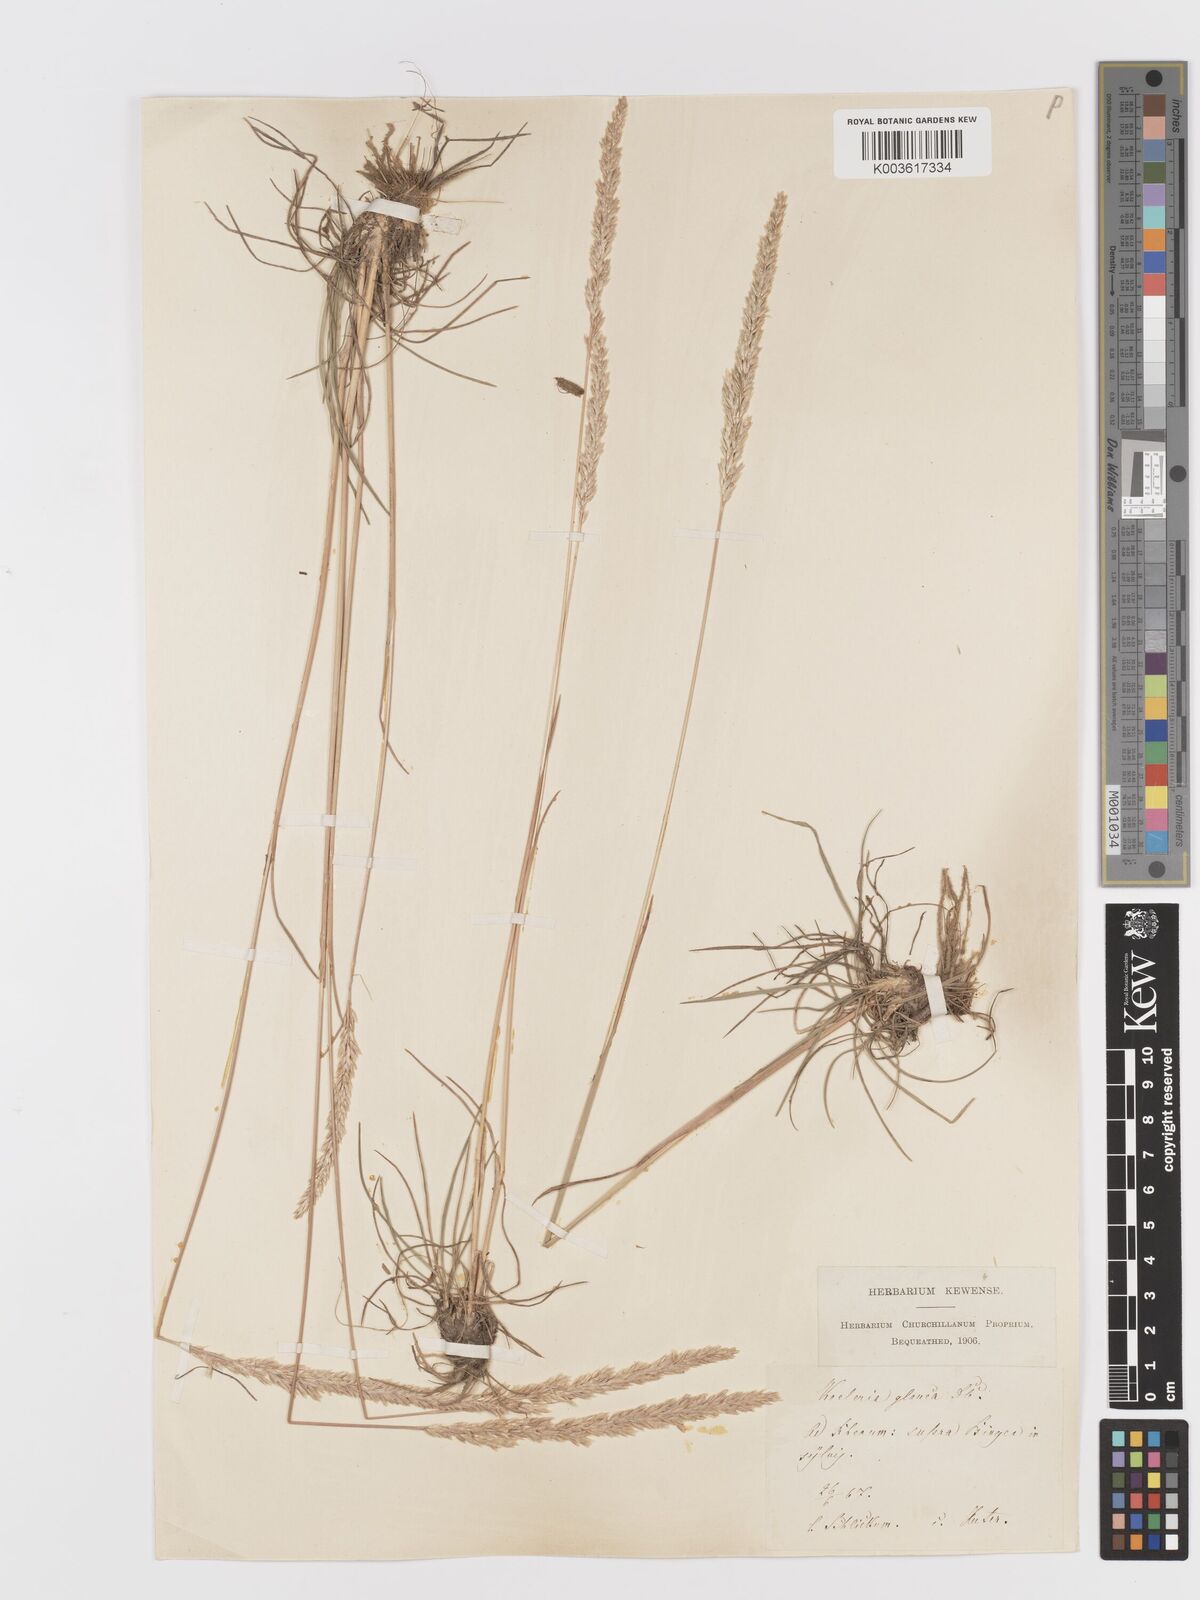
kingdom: Plantae
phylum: Tracheophyta
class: Liliopsida
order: Poales
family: Poaceae
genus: Koeleria
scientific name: Koeleria glauca
